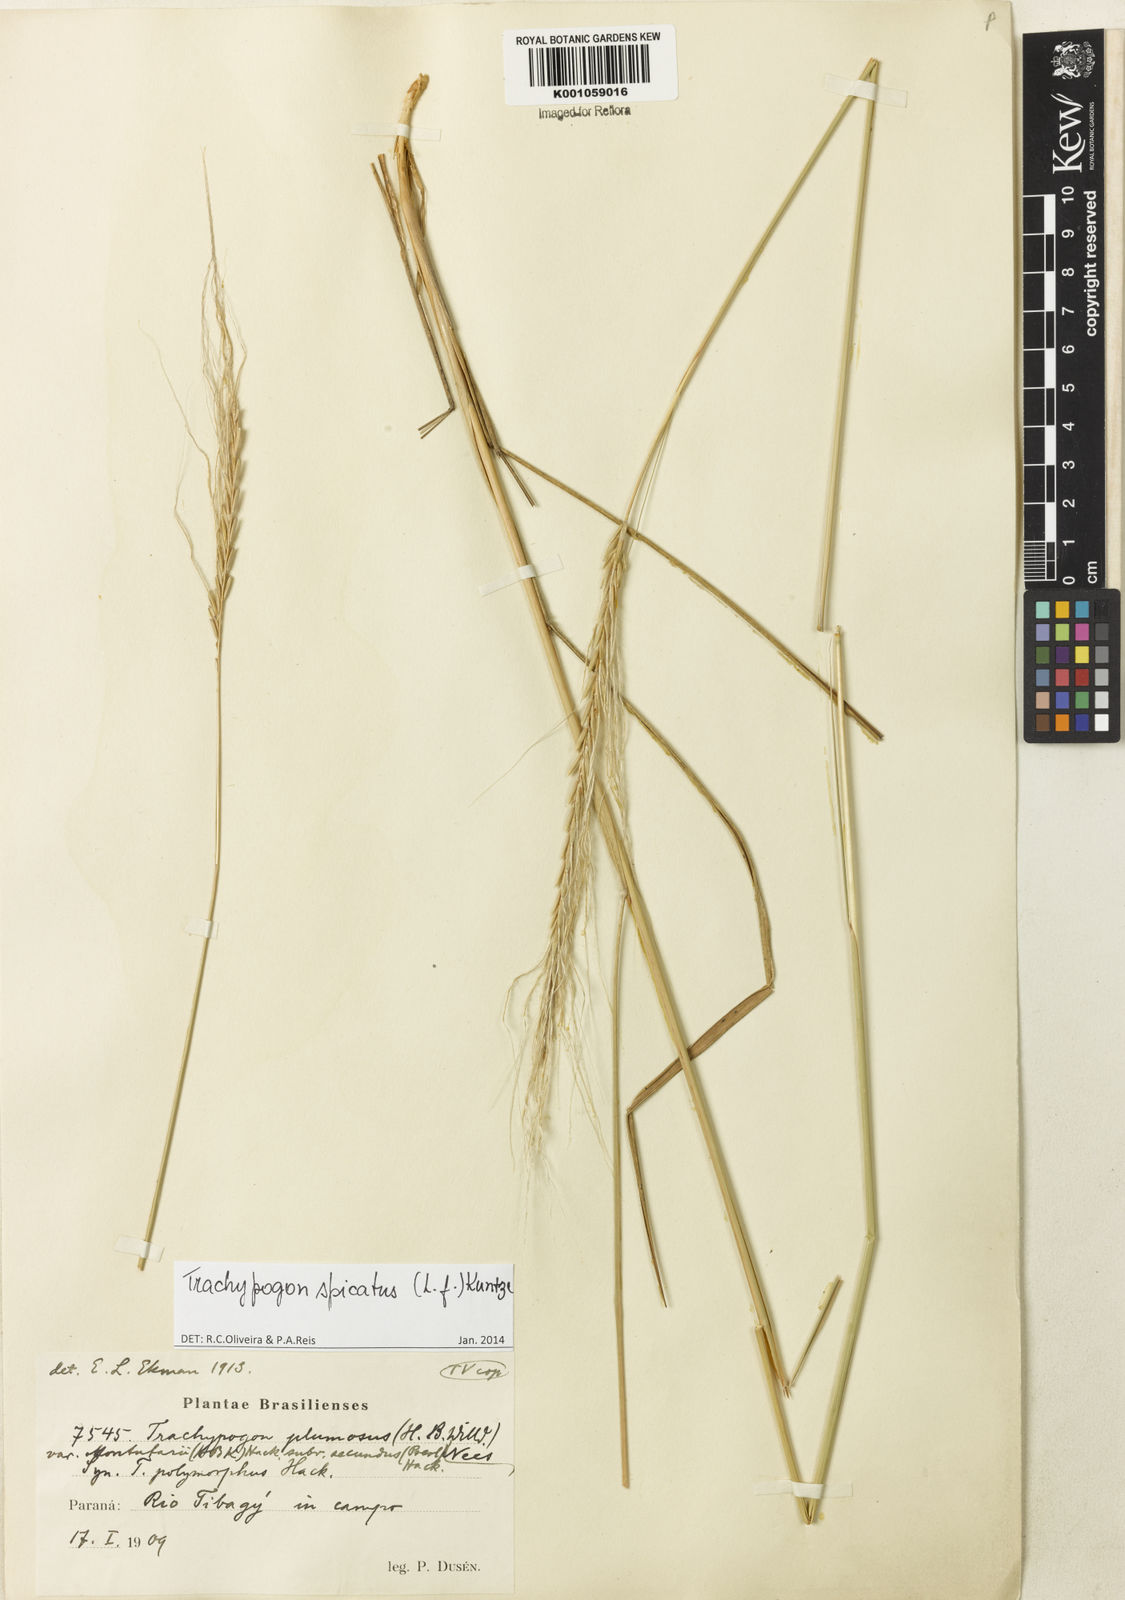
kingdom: Plantae
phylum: Tracheophyta
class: Liliopsida
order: Poales
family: Poaceae
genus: Trachypogon
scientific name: Trachypogon spicatus
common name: Crinkle-awn
